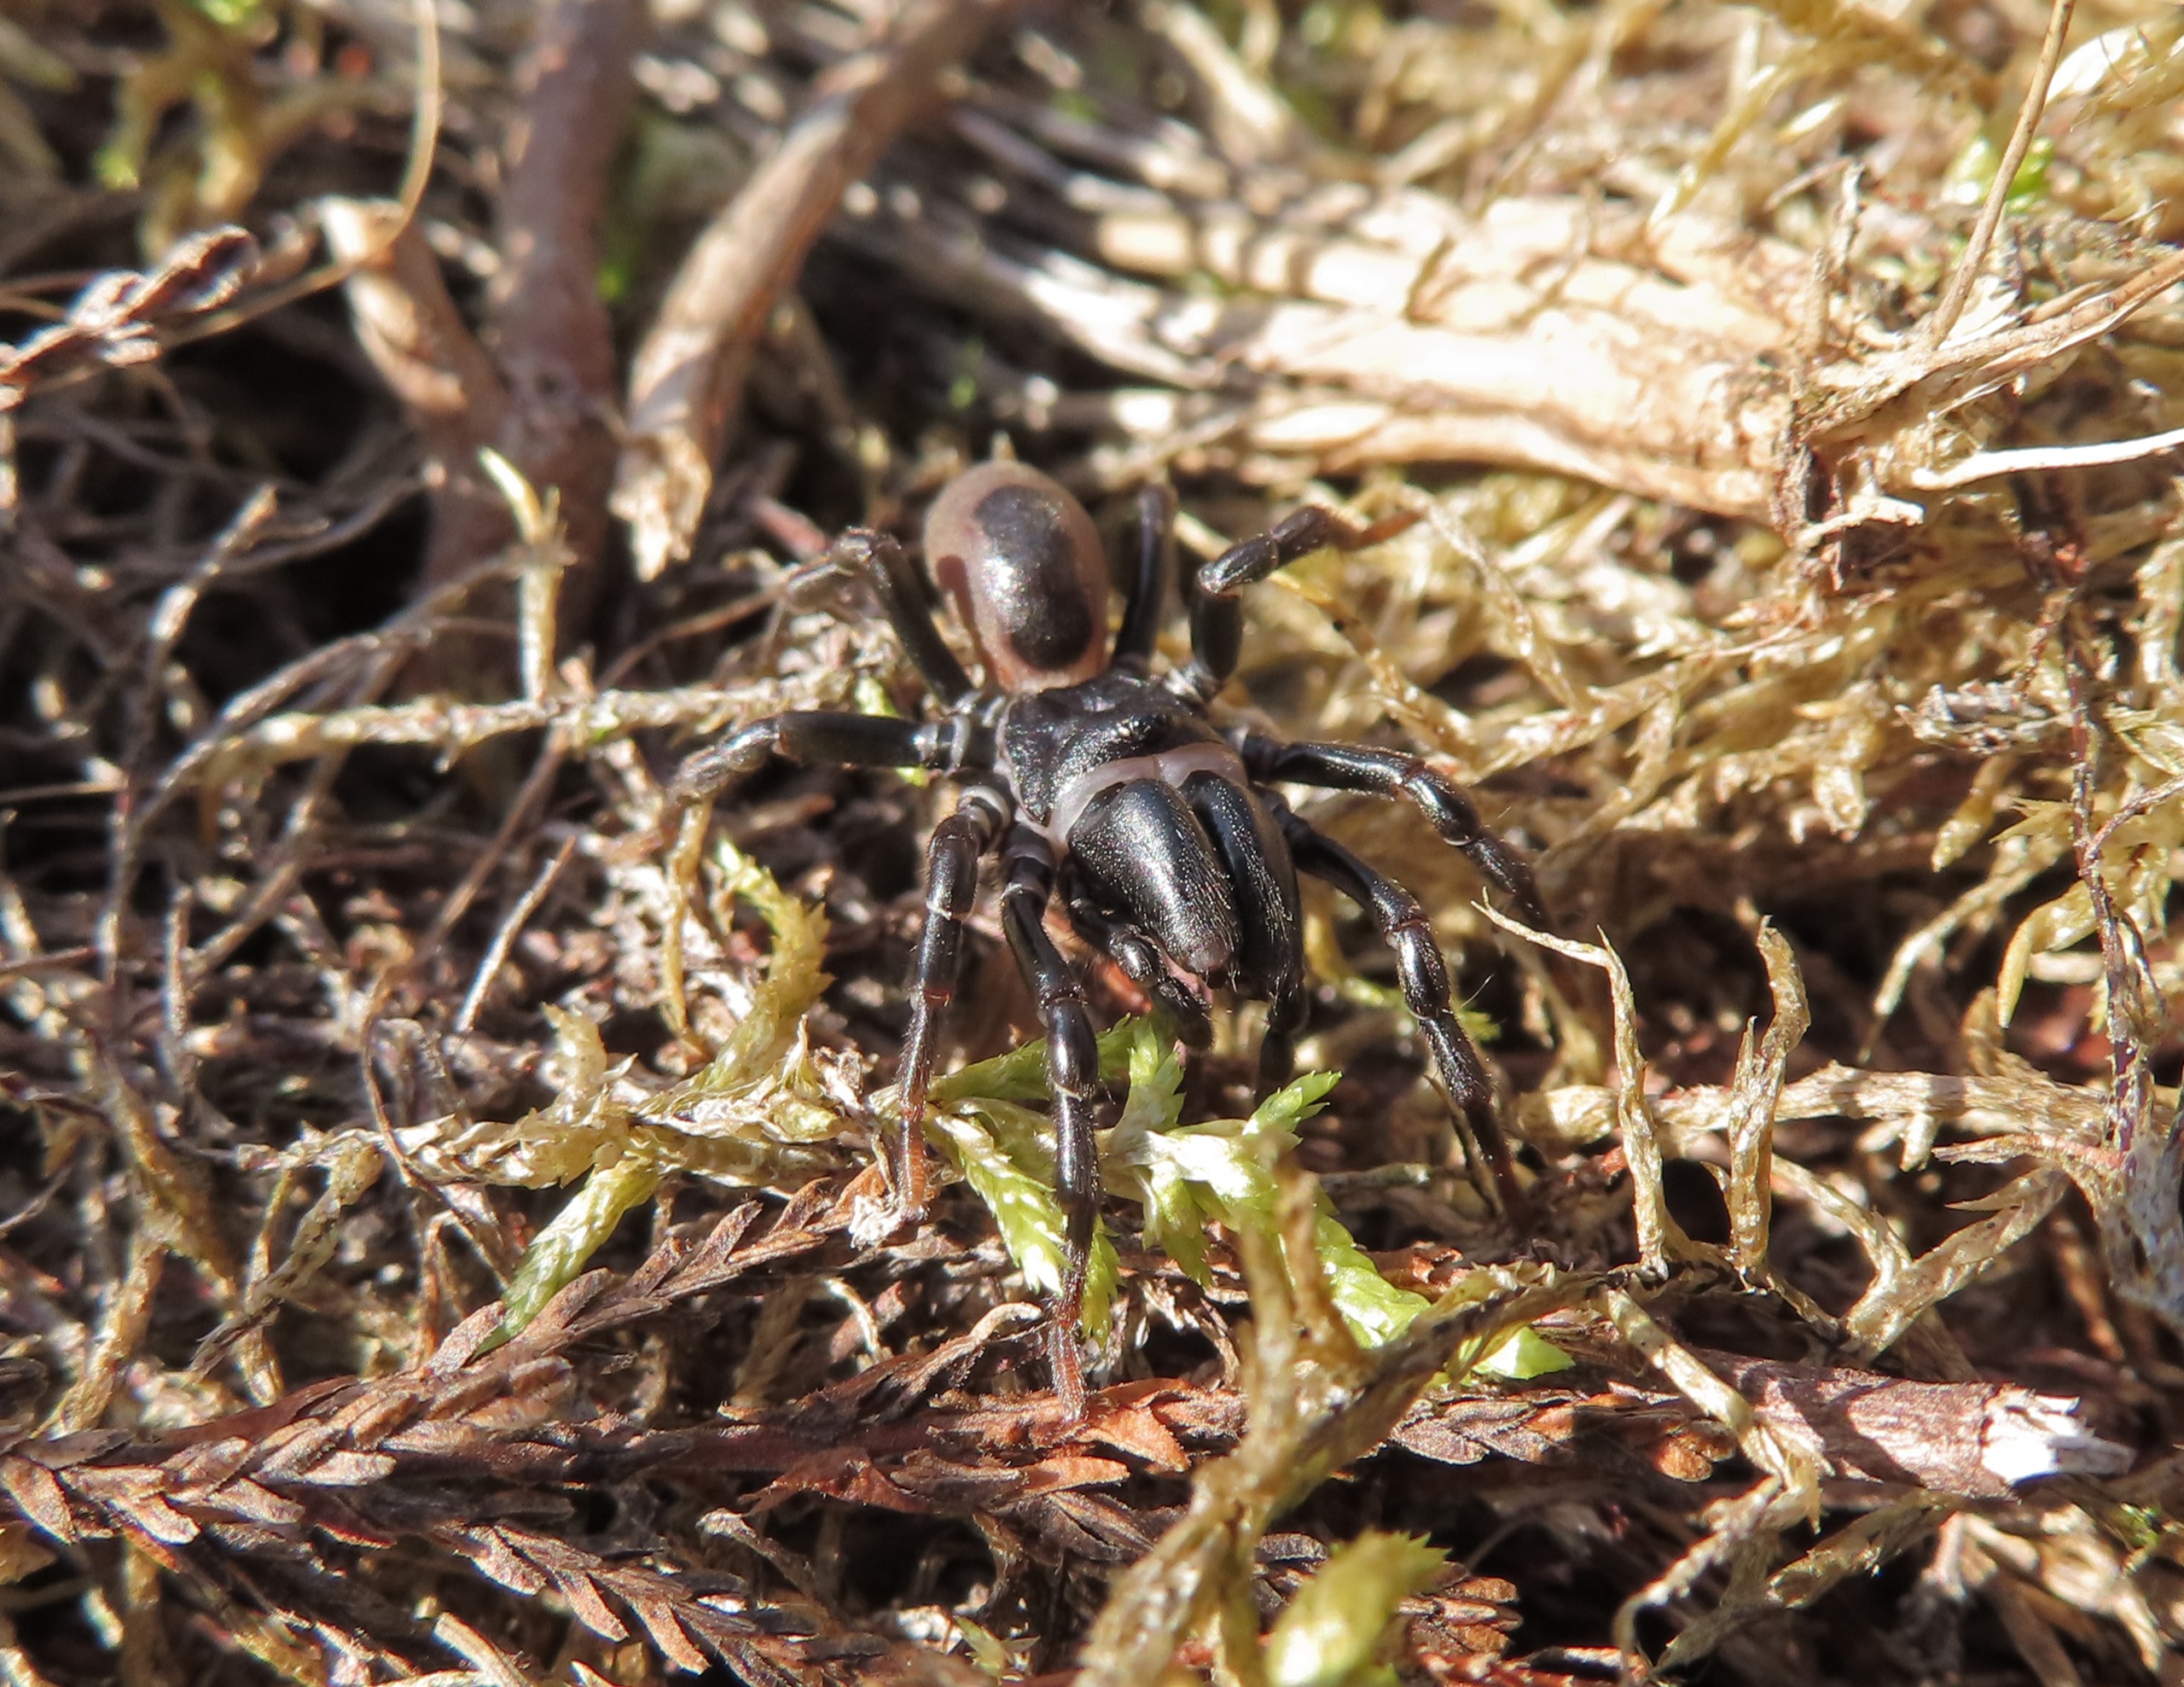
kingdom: Animalia
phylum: Arthropoda
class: Arachnida
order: Araneae
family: Atypidae
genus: Atypus
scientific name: Atypus affinis
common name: Nordlig fugleedderkop
